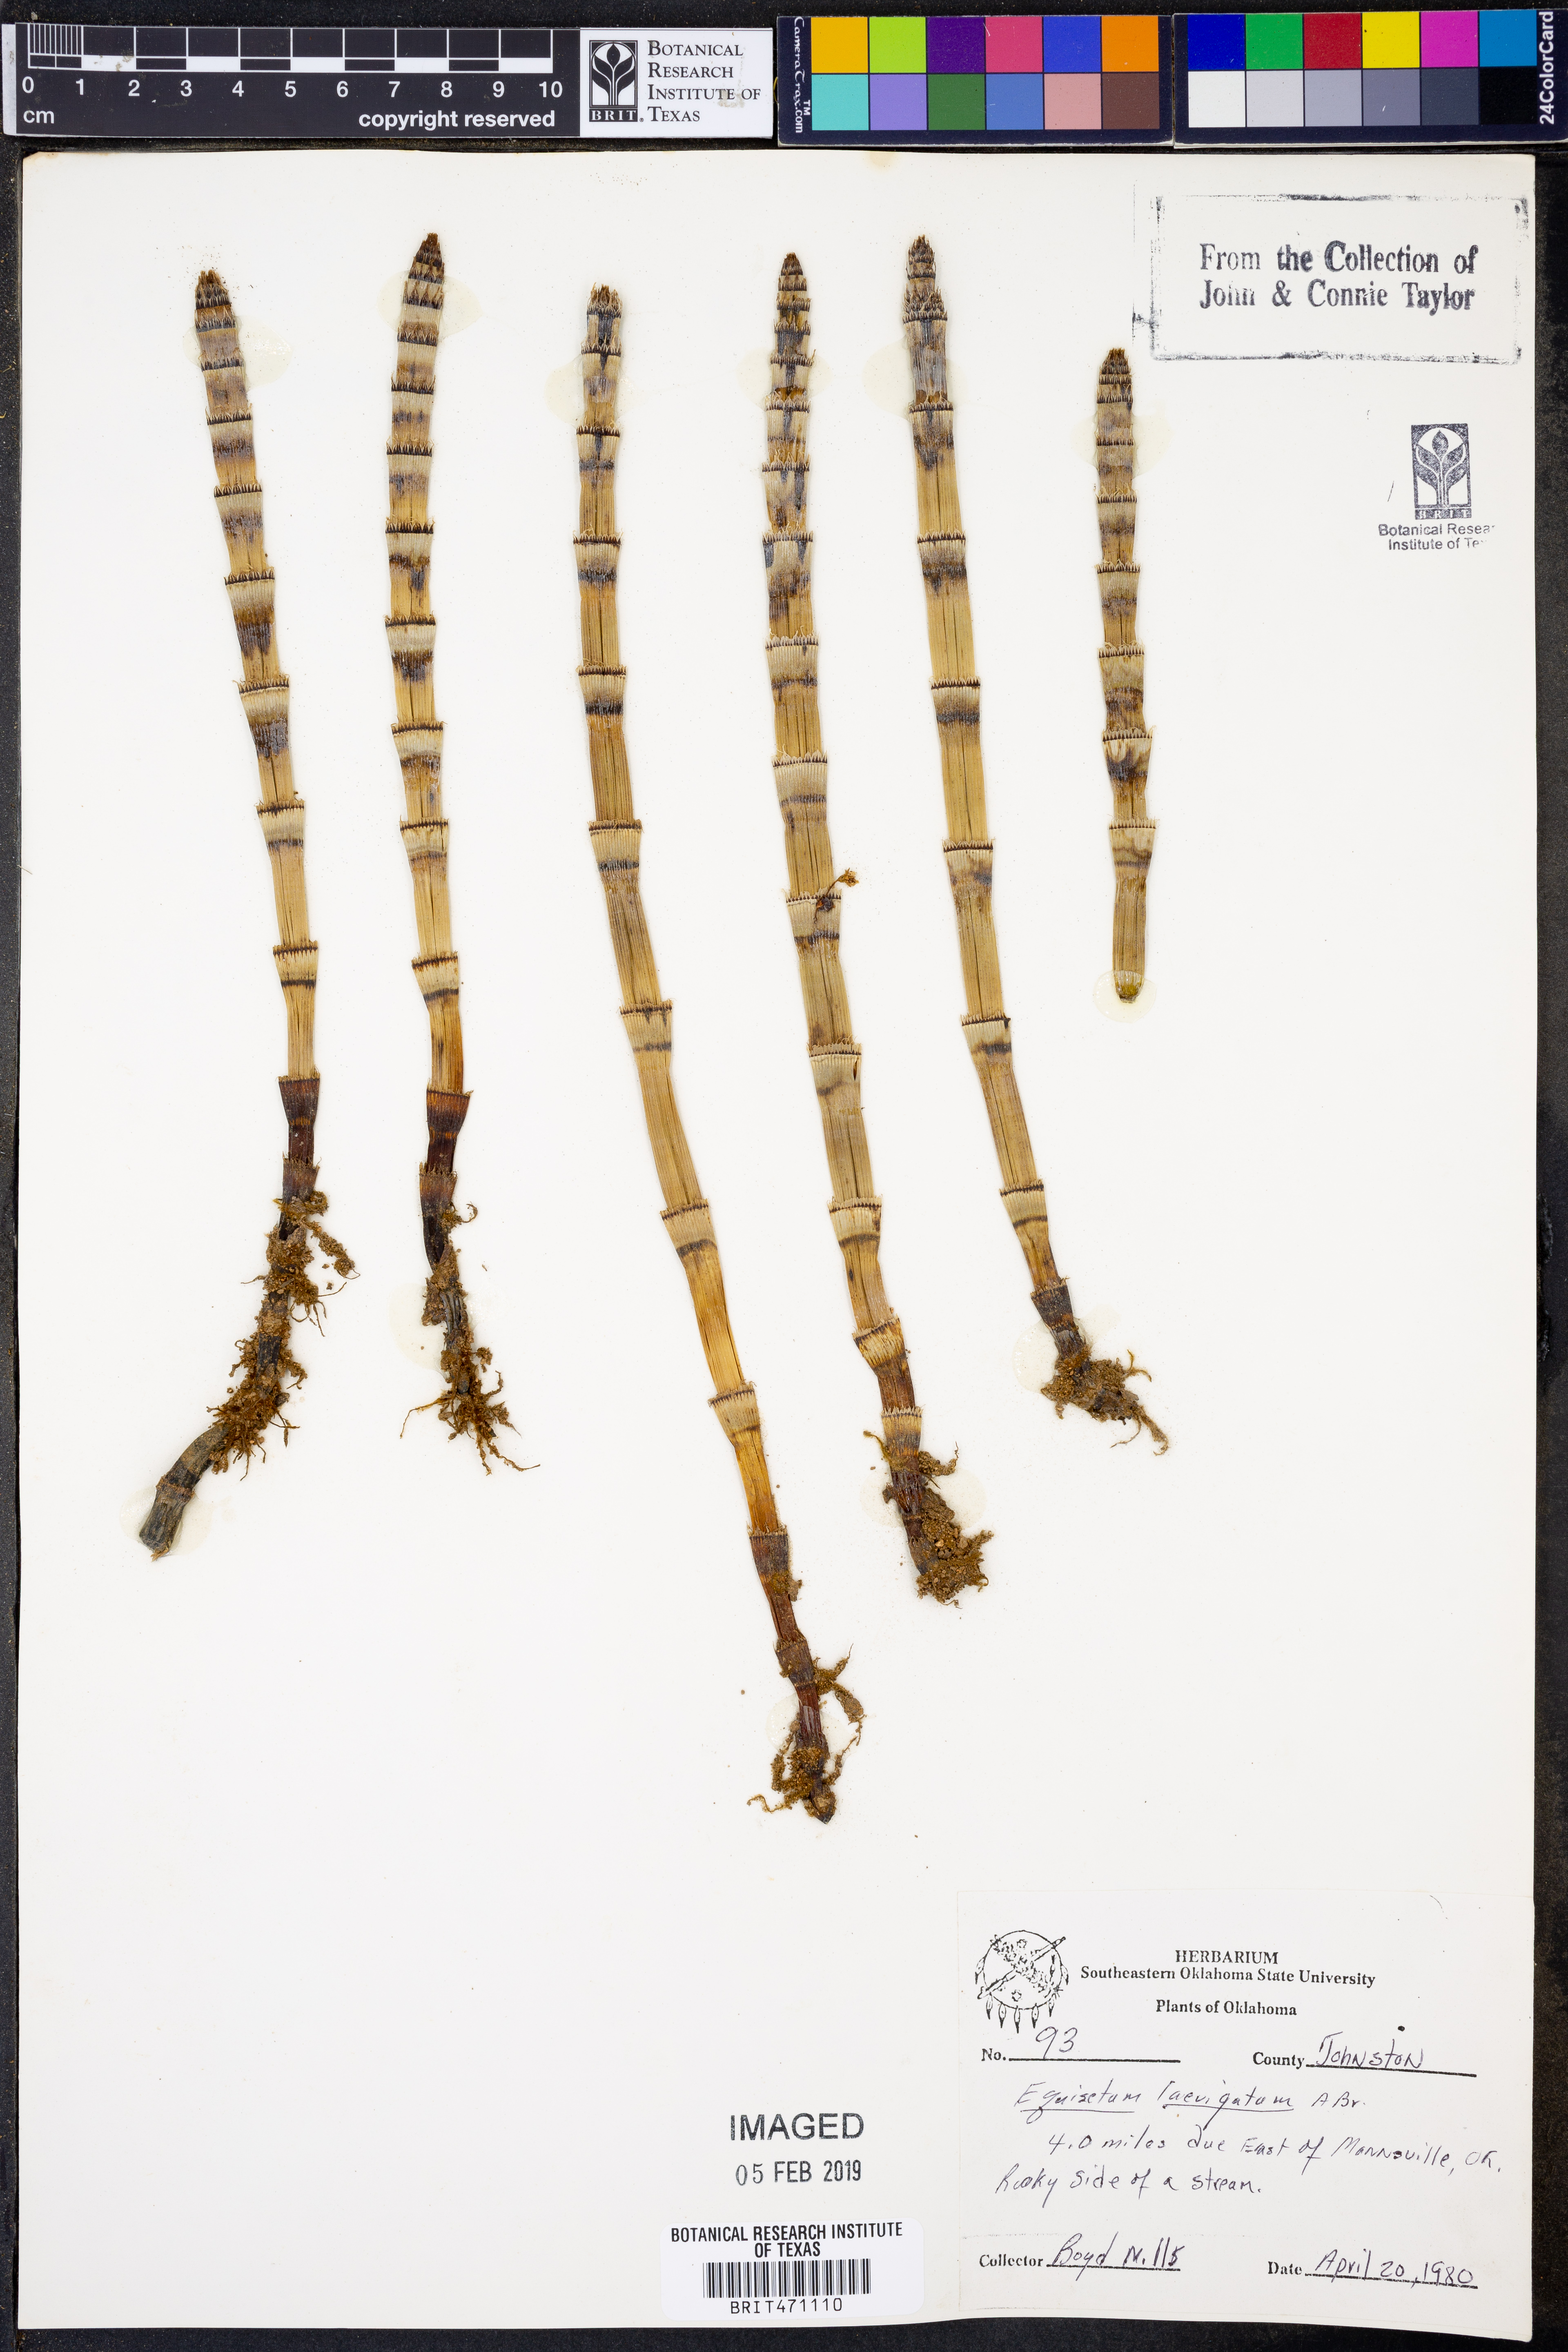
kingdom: Plantae
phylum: Tracheophyta
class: Polypodiopsida
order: Equisetales
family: Equisetaceae
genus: Equisetum
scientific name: Equisetum laevigatum
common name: Smooth scouring-rush
